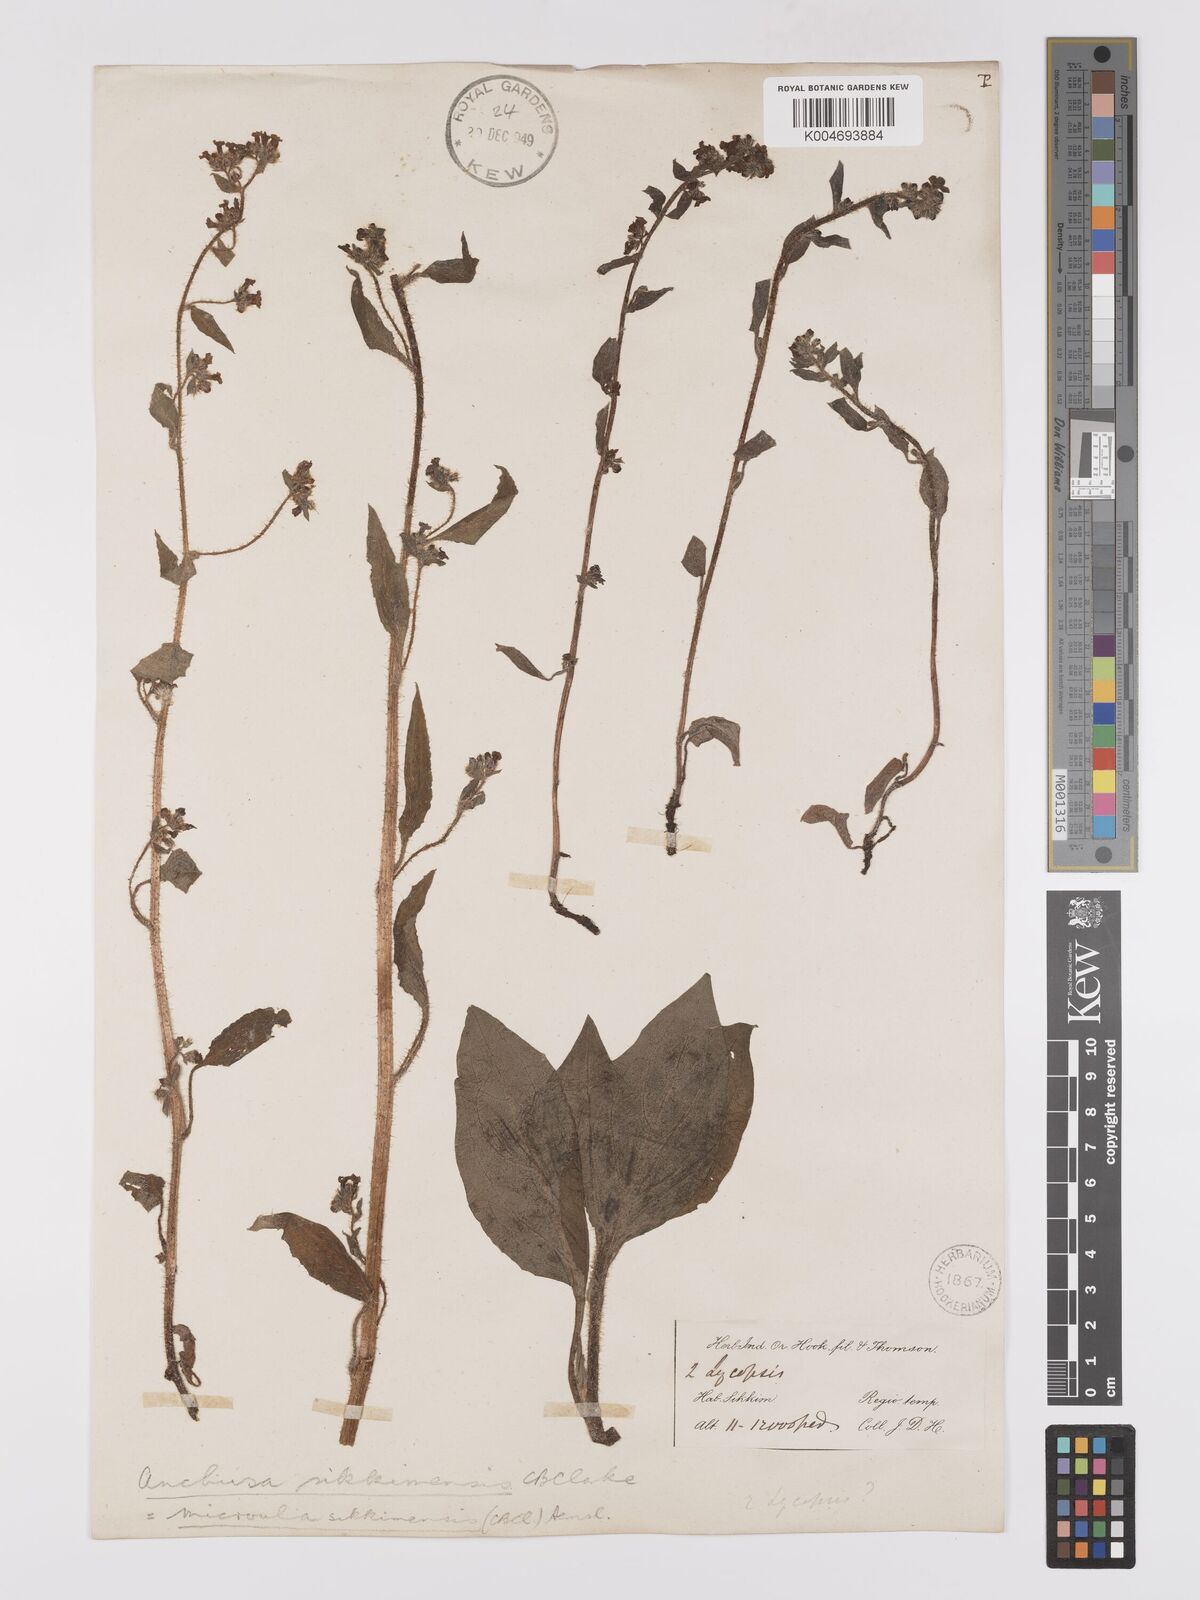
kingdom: Plantae
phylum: Tracheophyta
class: Magnoliopsida
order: Boraginales
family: Boraginaceae
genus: Microula
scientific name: Microula sikkimensis
